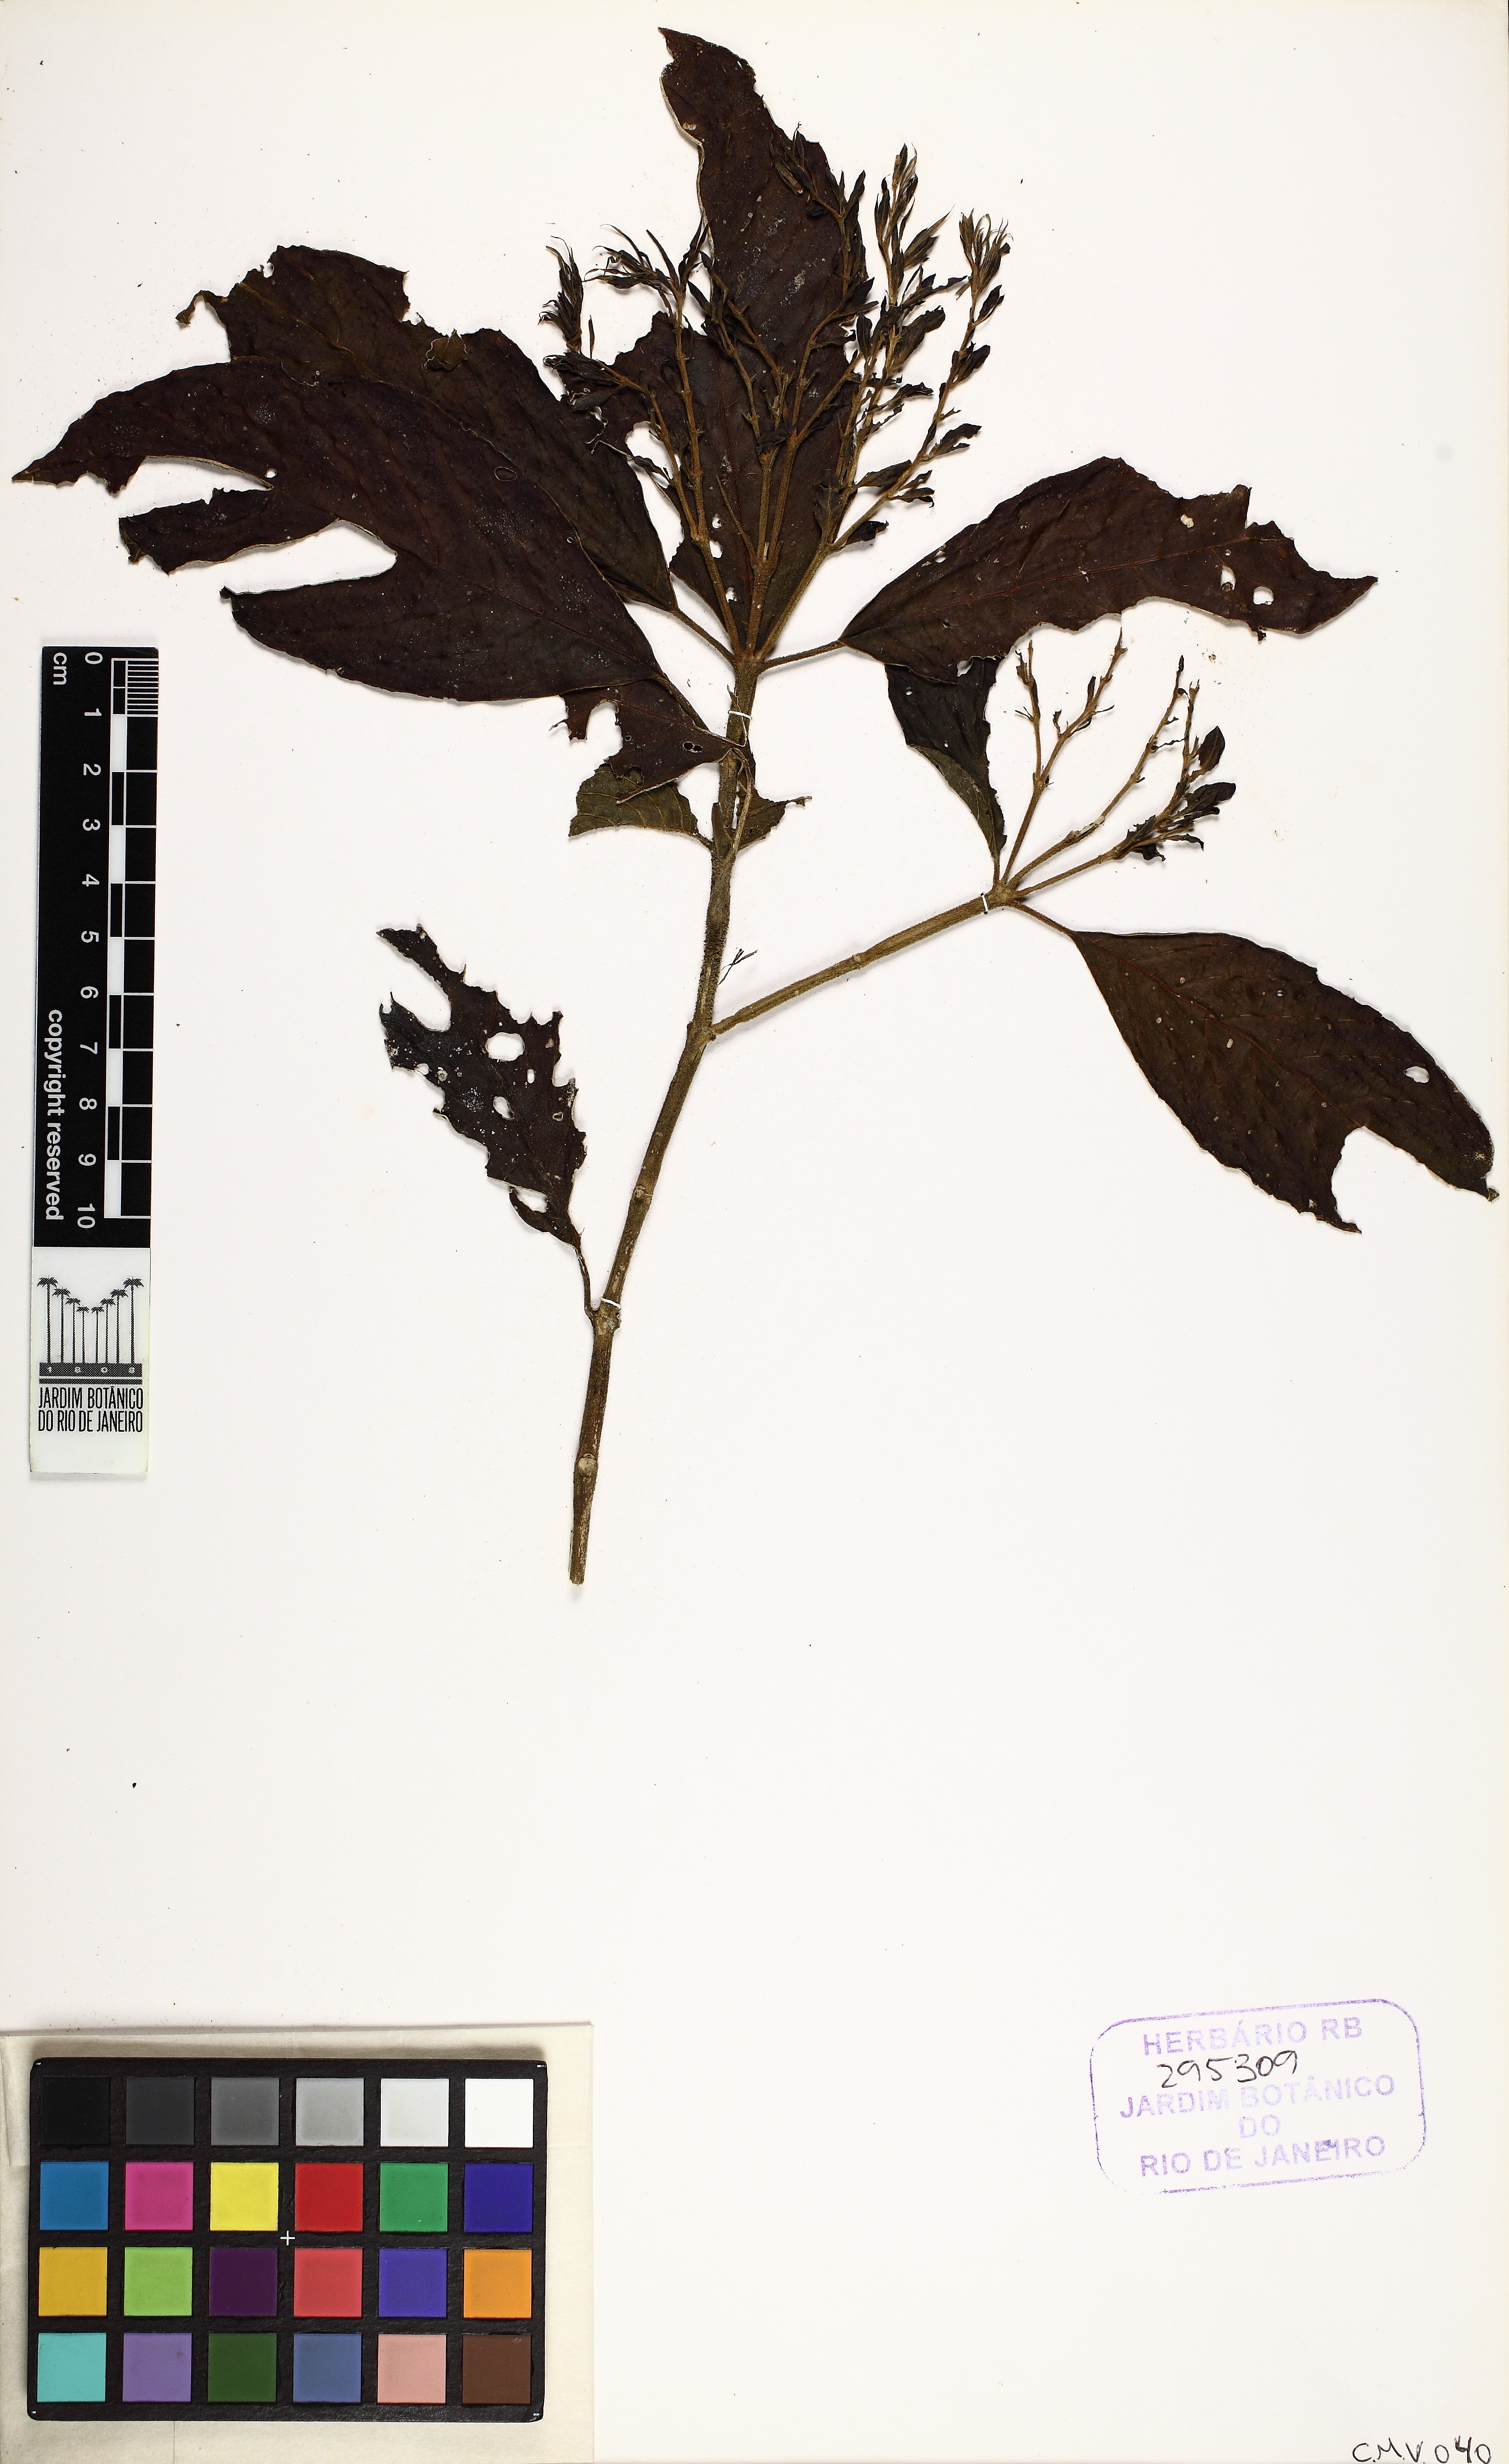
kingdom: Plantae
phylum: Tracheophyta
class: Magnoliopsida
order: Lamiales
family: Acanthaceae
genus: Justicia
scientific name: Justicia nervata
